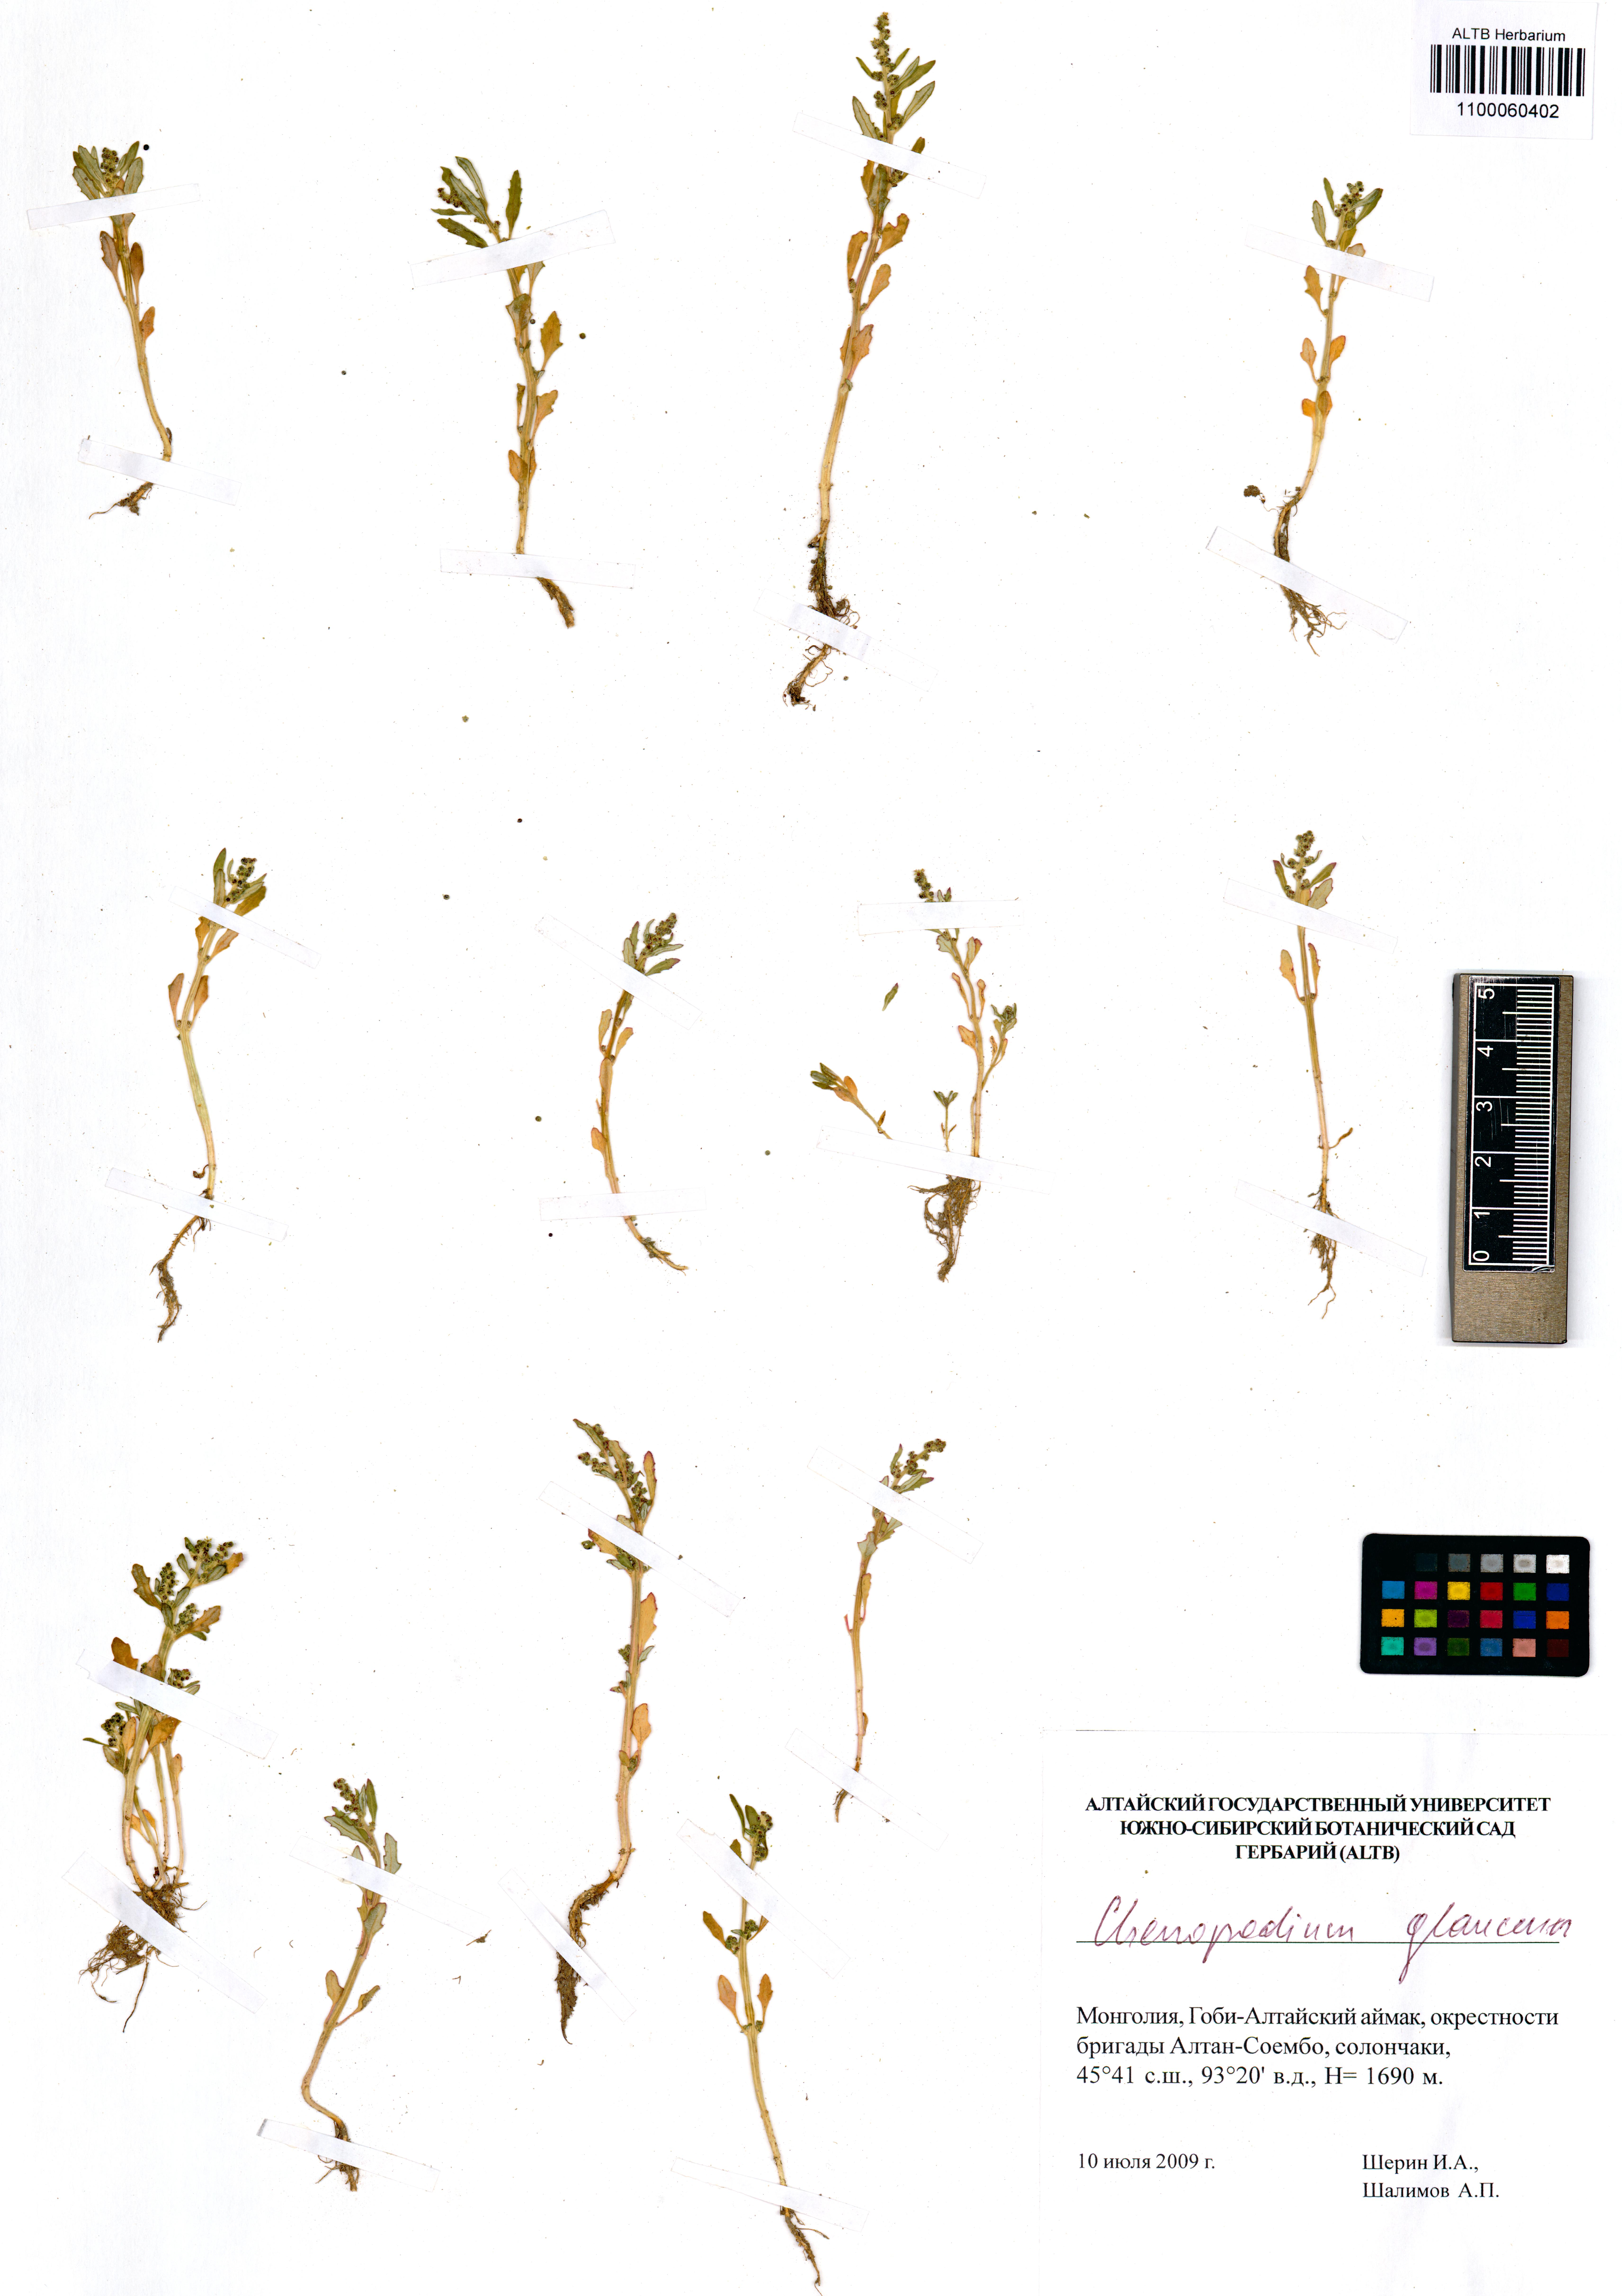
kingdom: Plantae
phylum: Tracheophyta
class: Magnoliopsida
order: Caryophyllales
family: Amaranthaceae
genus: Oxybasis
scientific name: Oxybasis glauca
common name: Glaucous goosefoot
